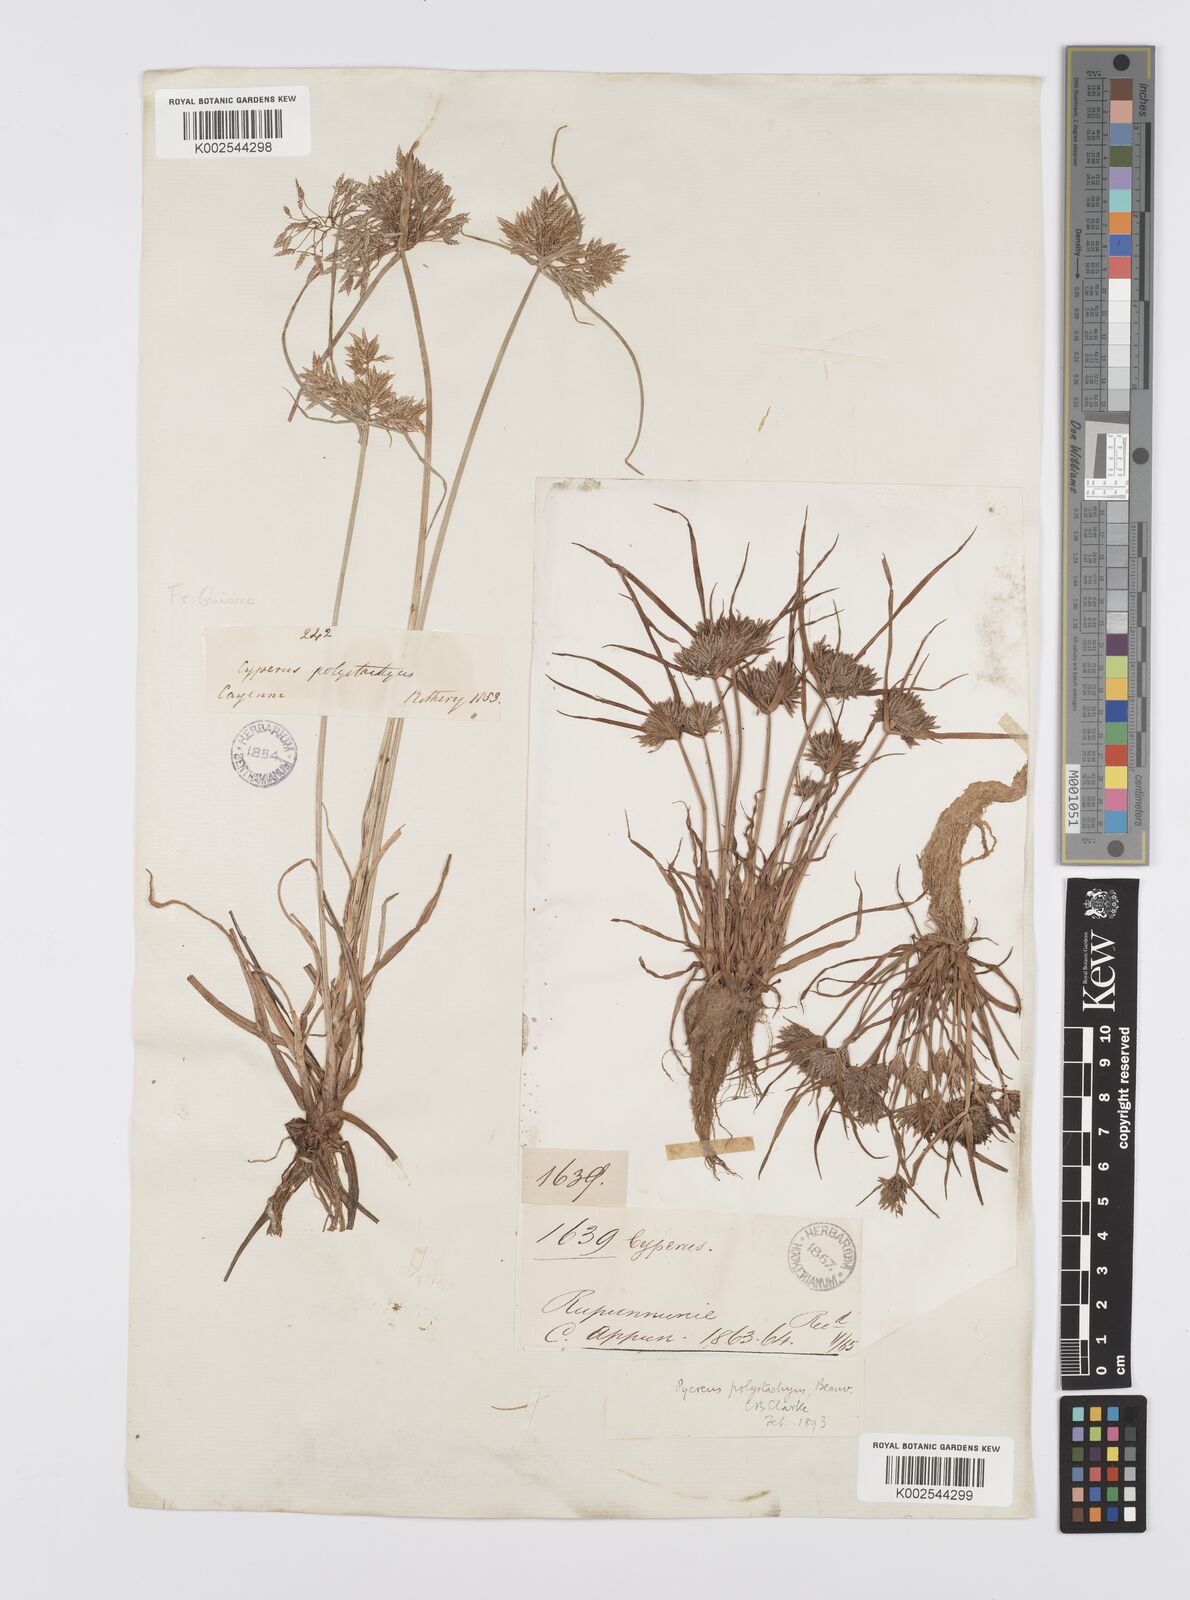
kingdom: Plantae
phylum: Tracheophyta
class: Liliopsida
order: Poales
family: Cyperaceae
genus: Cyperus
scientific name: Cyperus polystachyos
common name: Bunchy flat sedge
